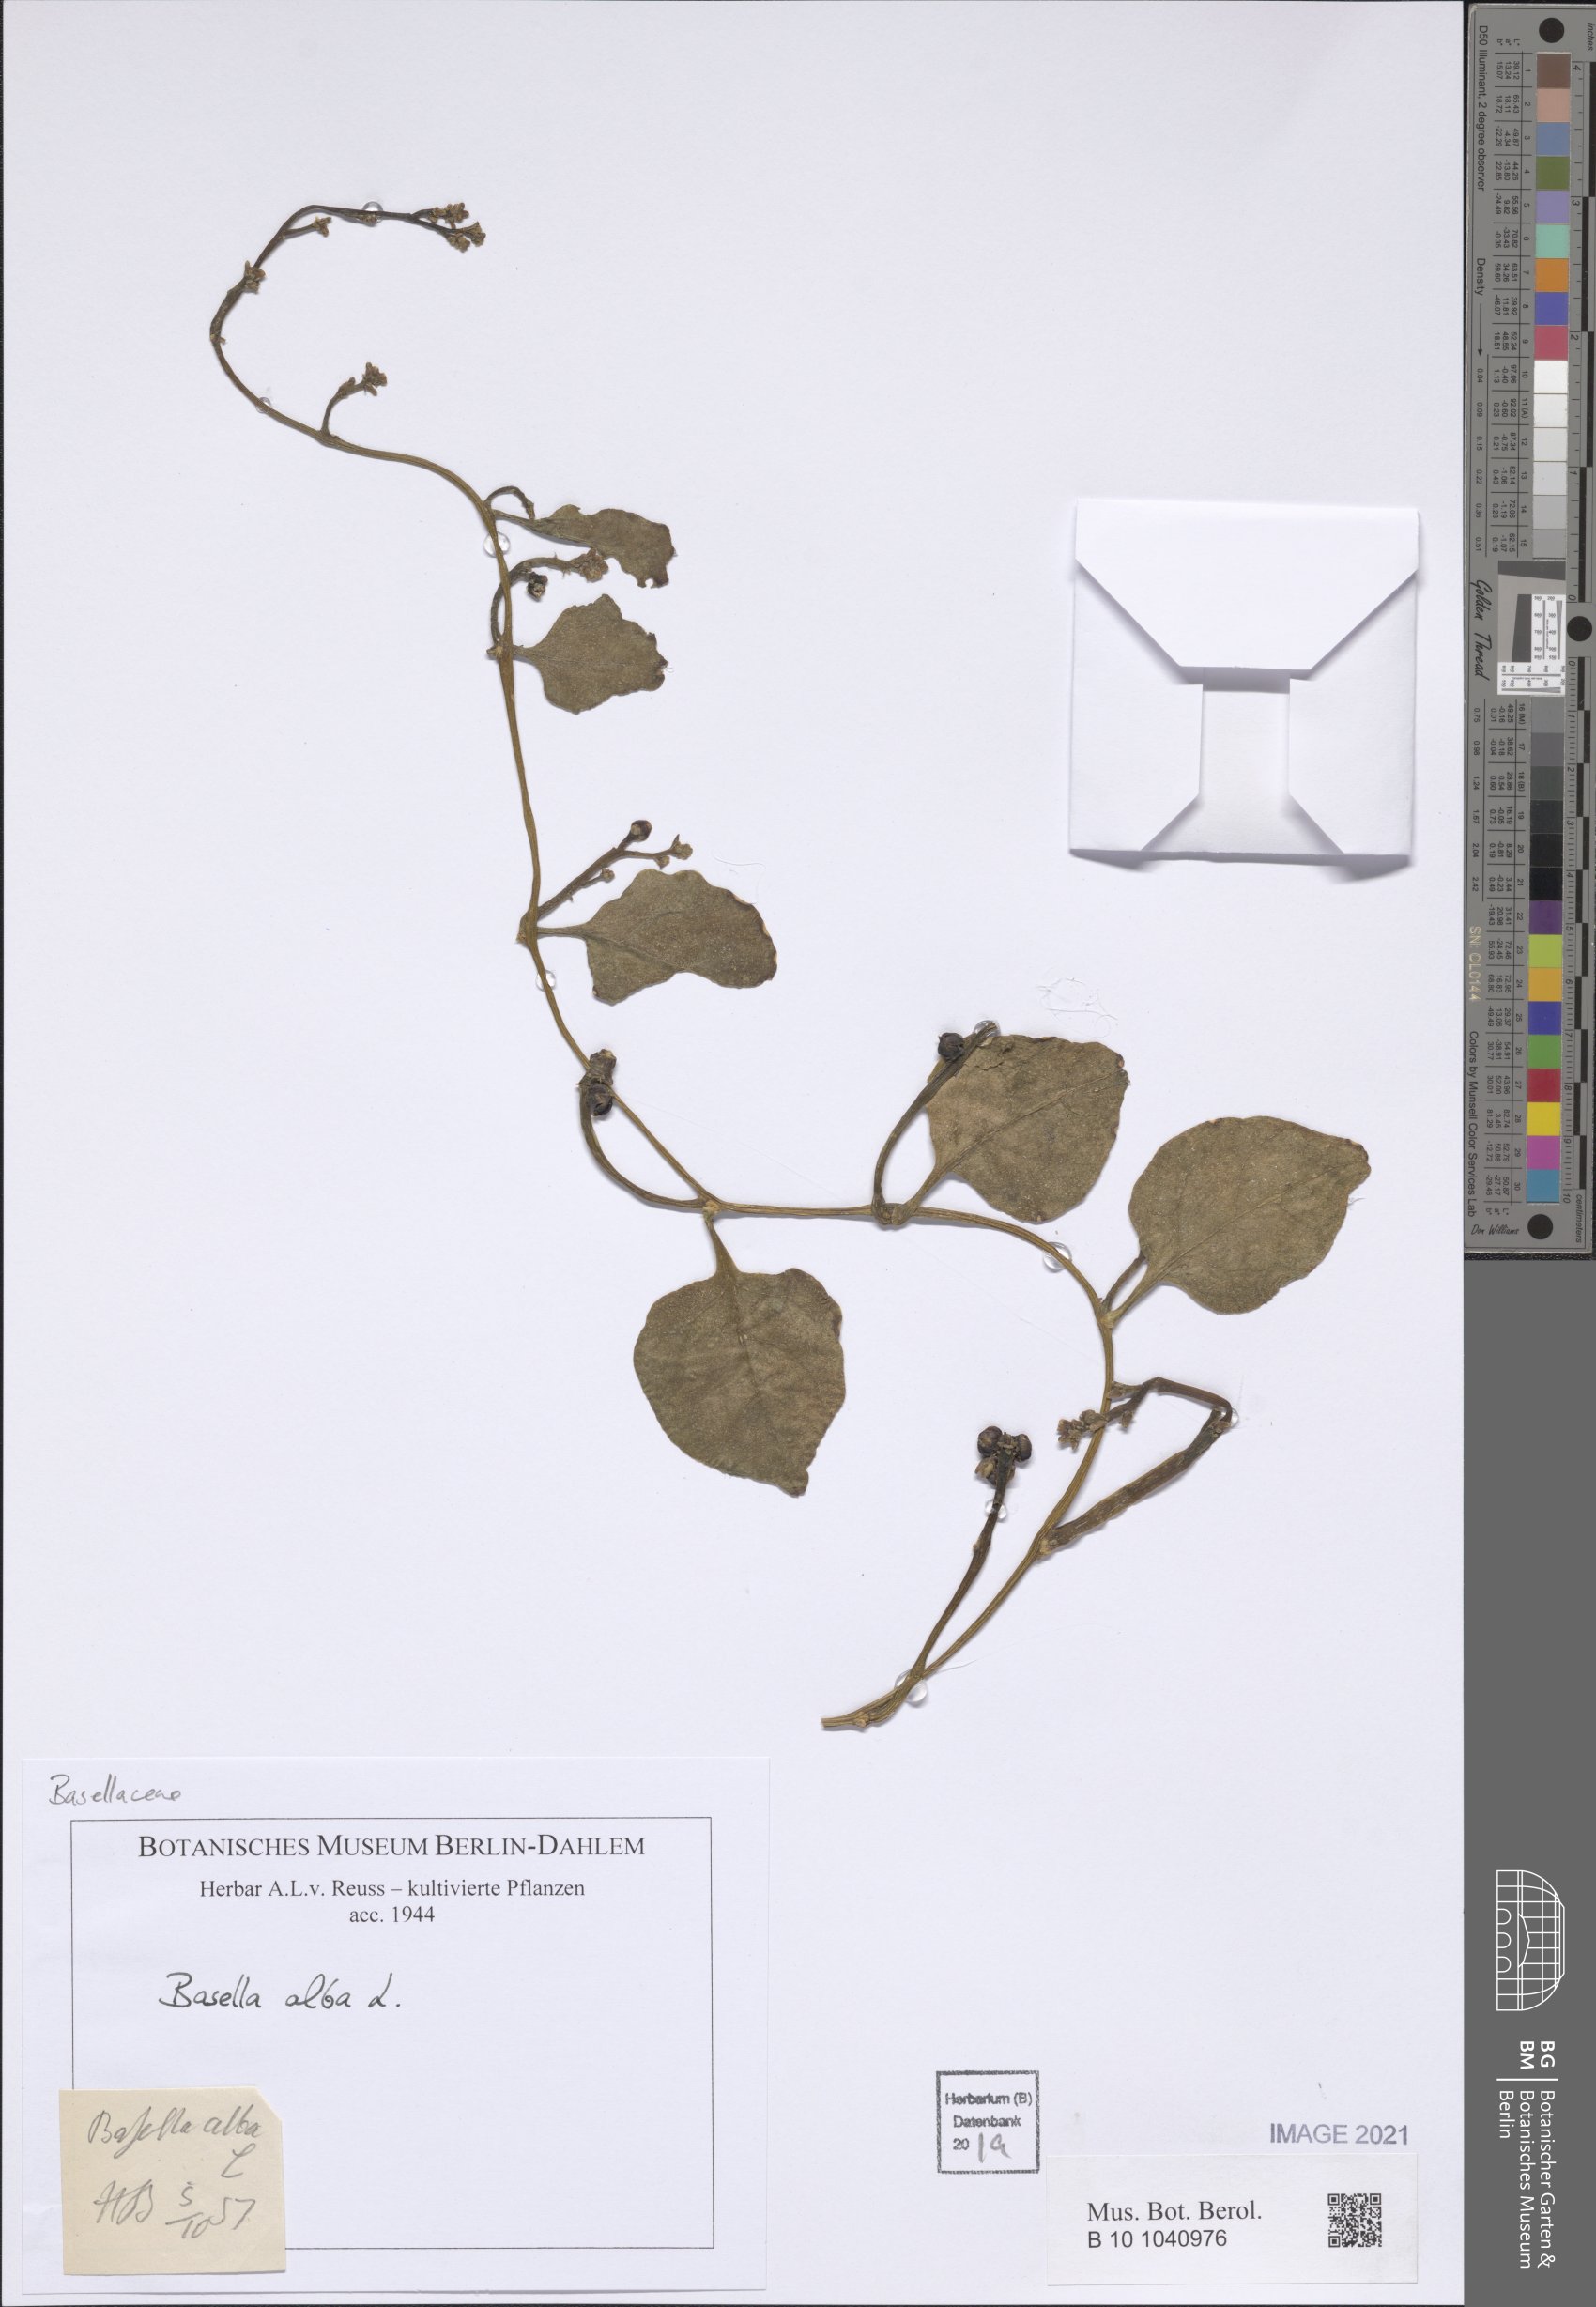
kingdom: Plantae
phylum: Tracheophyta
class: Magnoliopsida
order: Caryophyllales
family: Basellaceae
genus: Basella
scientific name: Basella alba
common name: Indian spinach
